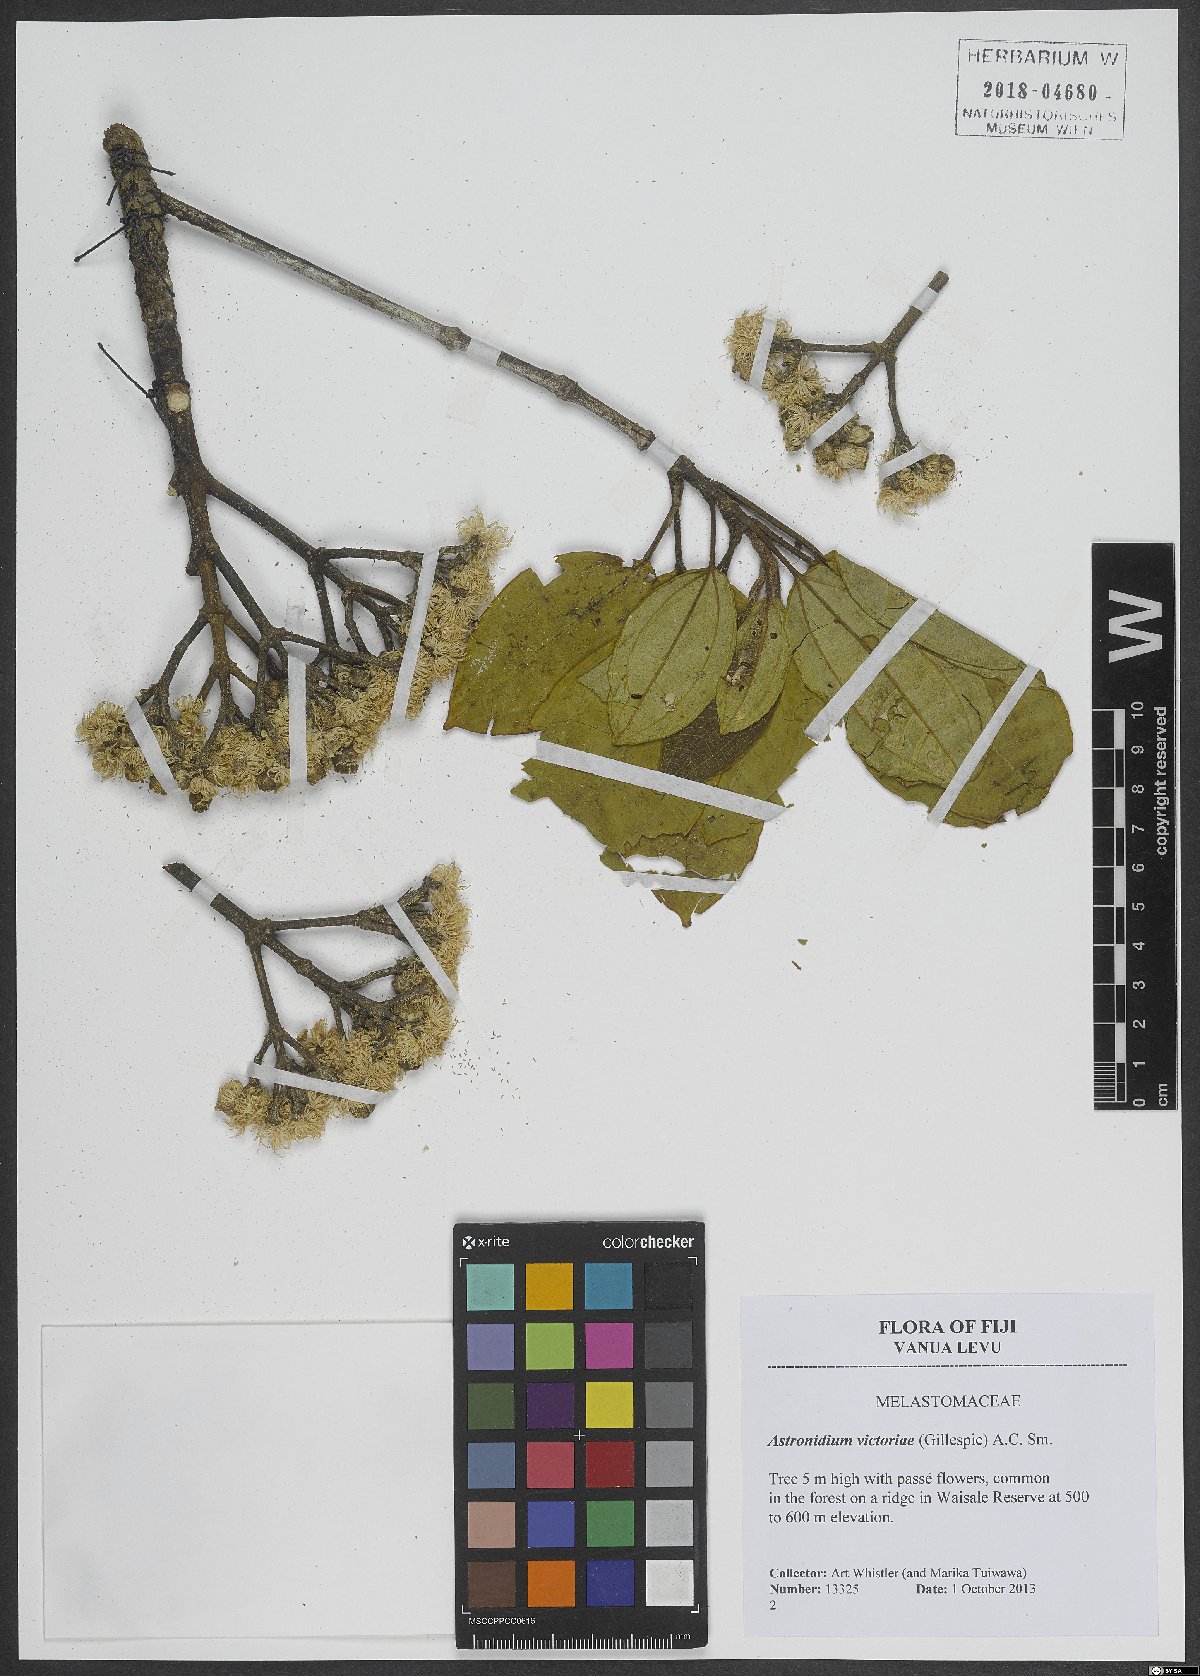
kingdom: Plantae
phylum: Tracheophyta
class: Magnoliopsida
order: Myrtales
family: Melastomataceae
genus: Astronidium
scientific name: Astronidium victoriae
